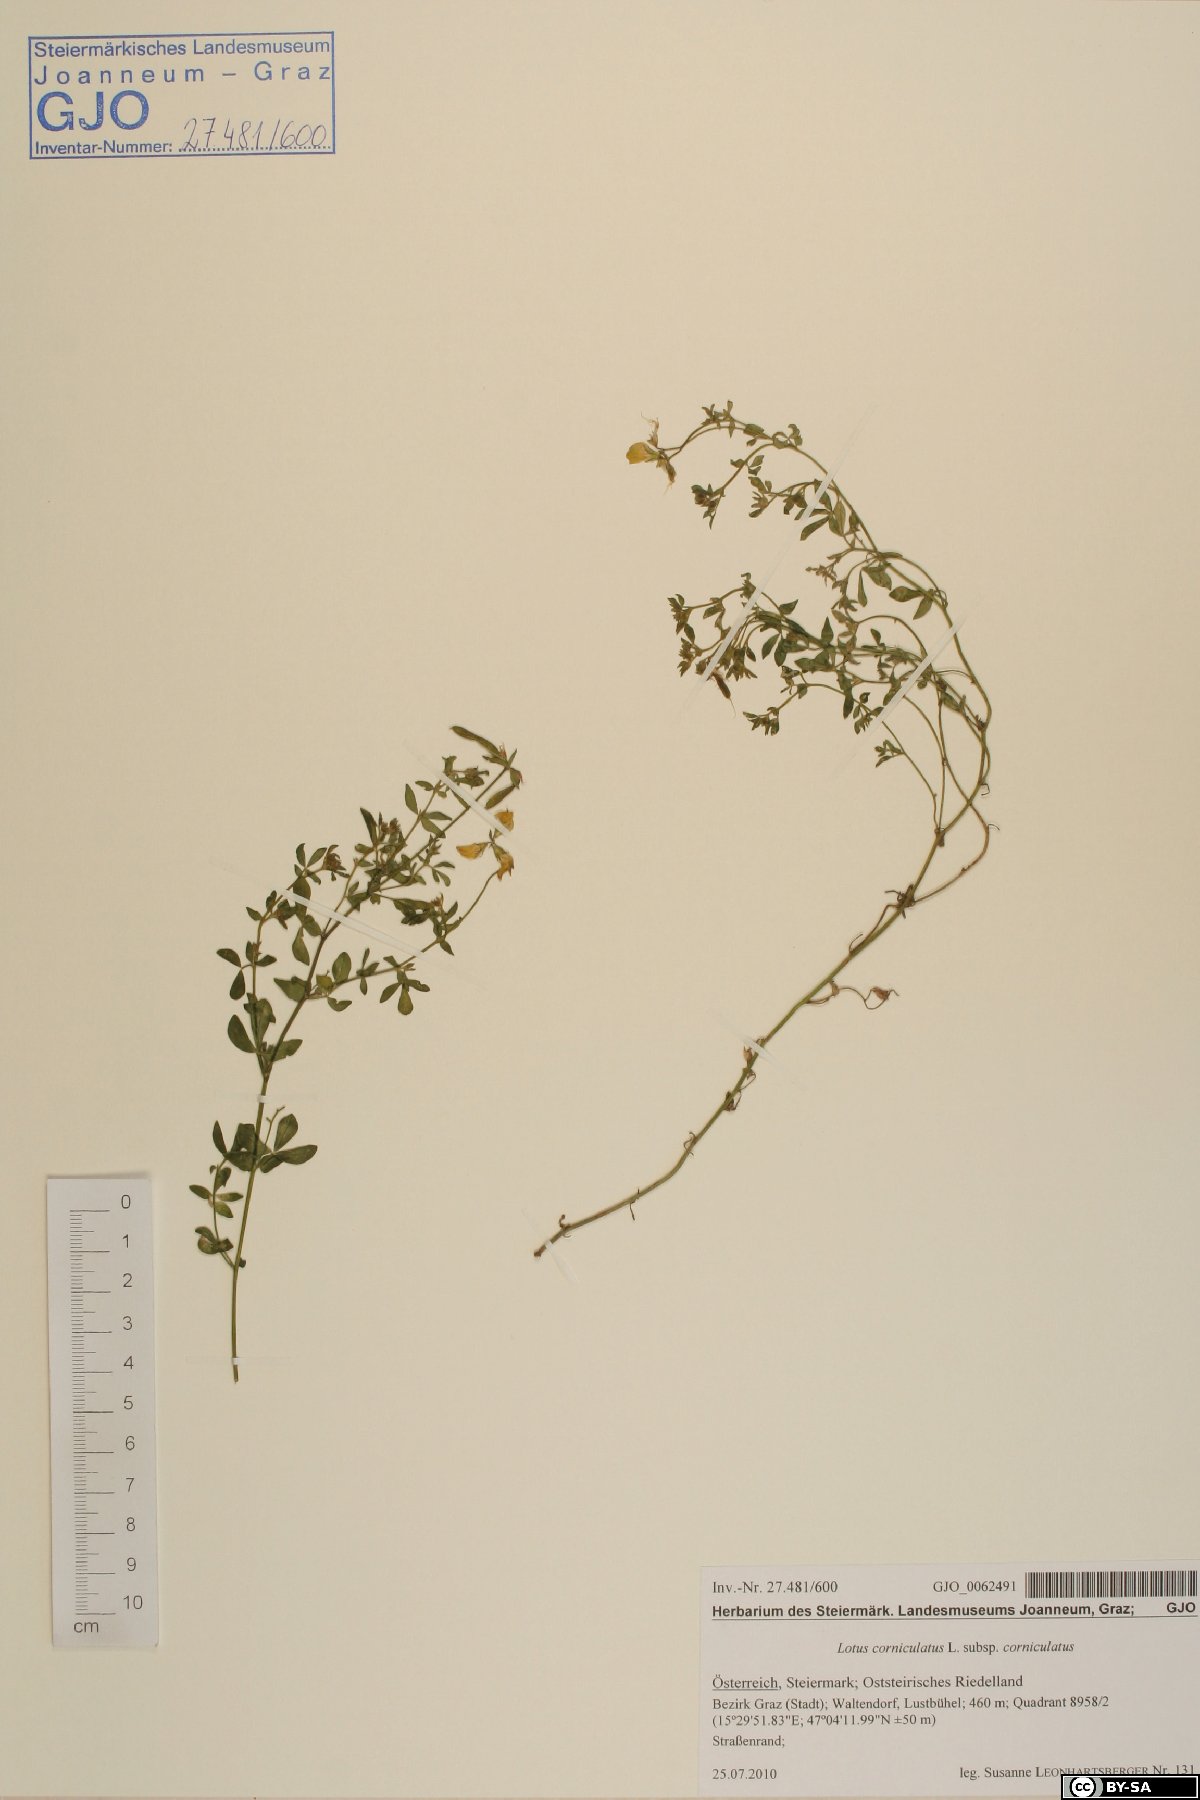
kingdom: Plantae
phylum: Tracheophyta
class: Magnoliopsida
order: Fabales
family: Fabaceae
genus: Lotus
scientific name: Lotus corniculatus
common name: Common bird's-foot-trefoil
